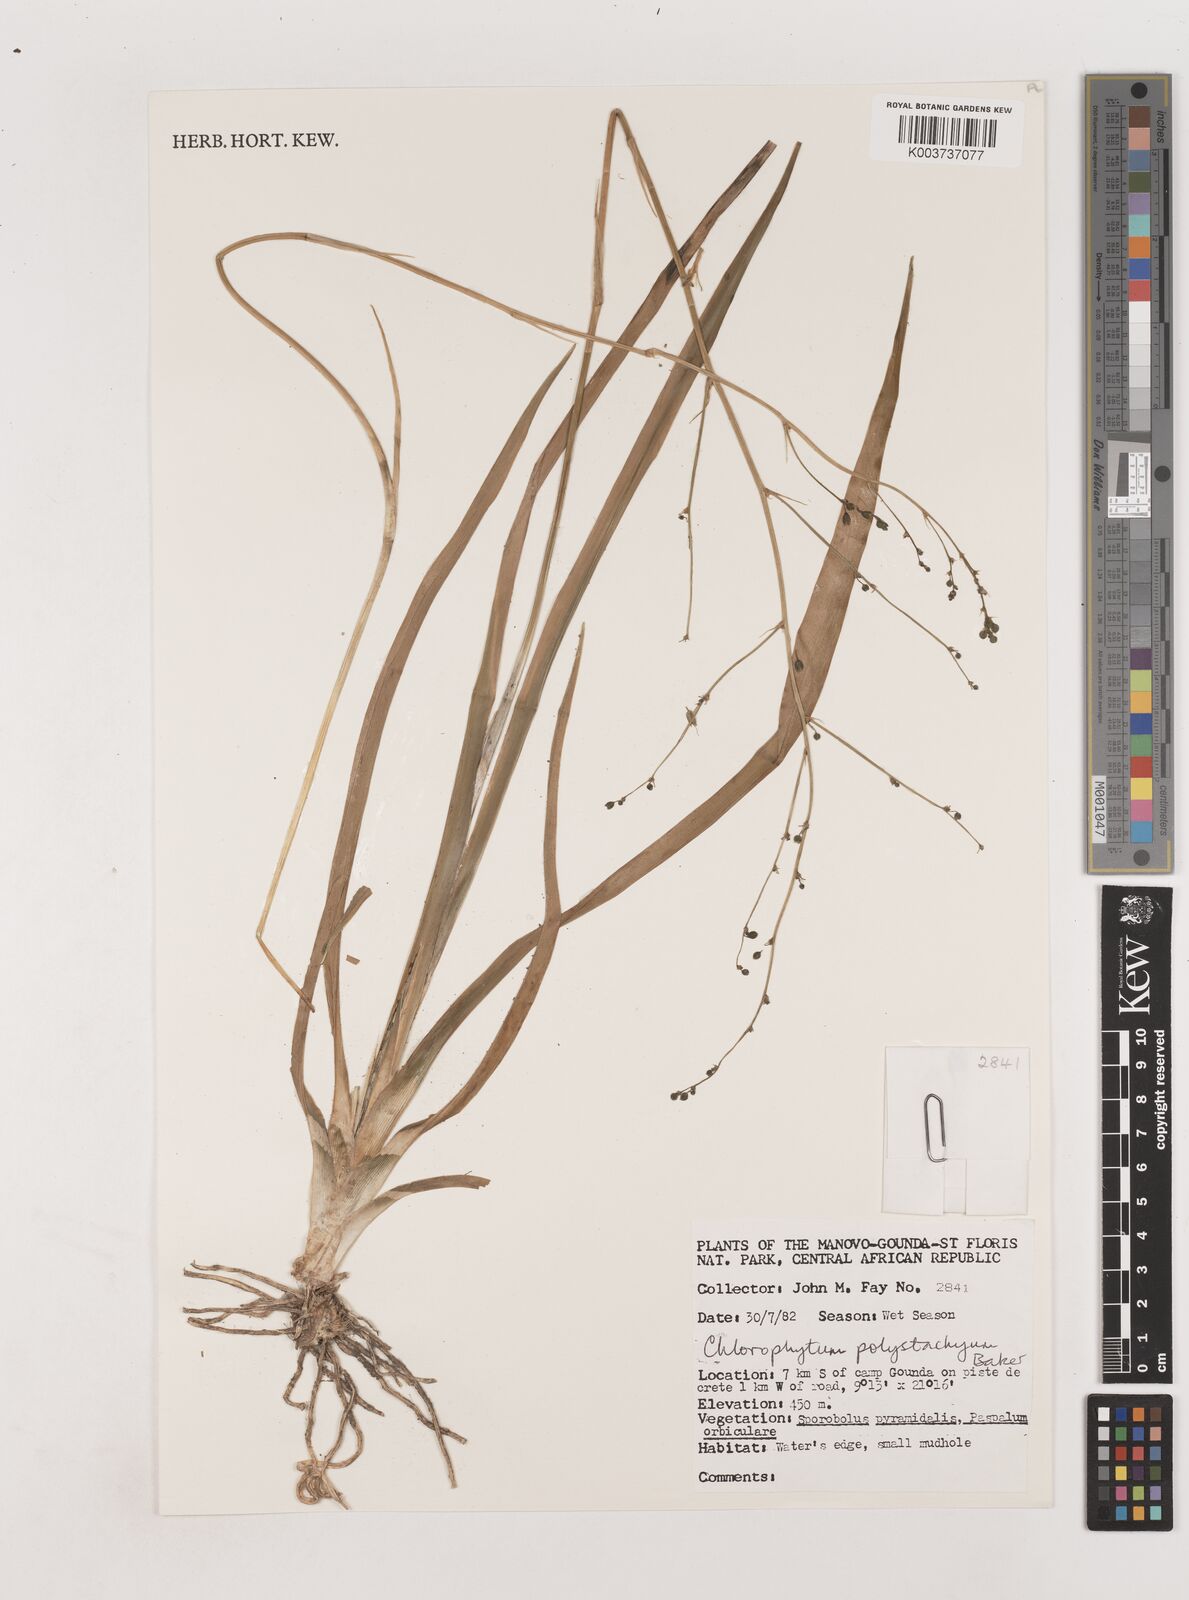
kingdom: Plantae
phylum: Tracheophyta
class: Liliopsida
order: Asparagales
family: Asparagaceae
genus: Chlorophytum
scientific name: Chlorophytum polystachys
